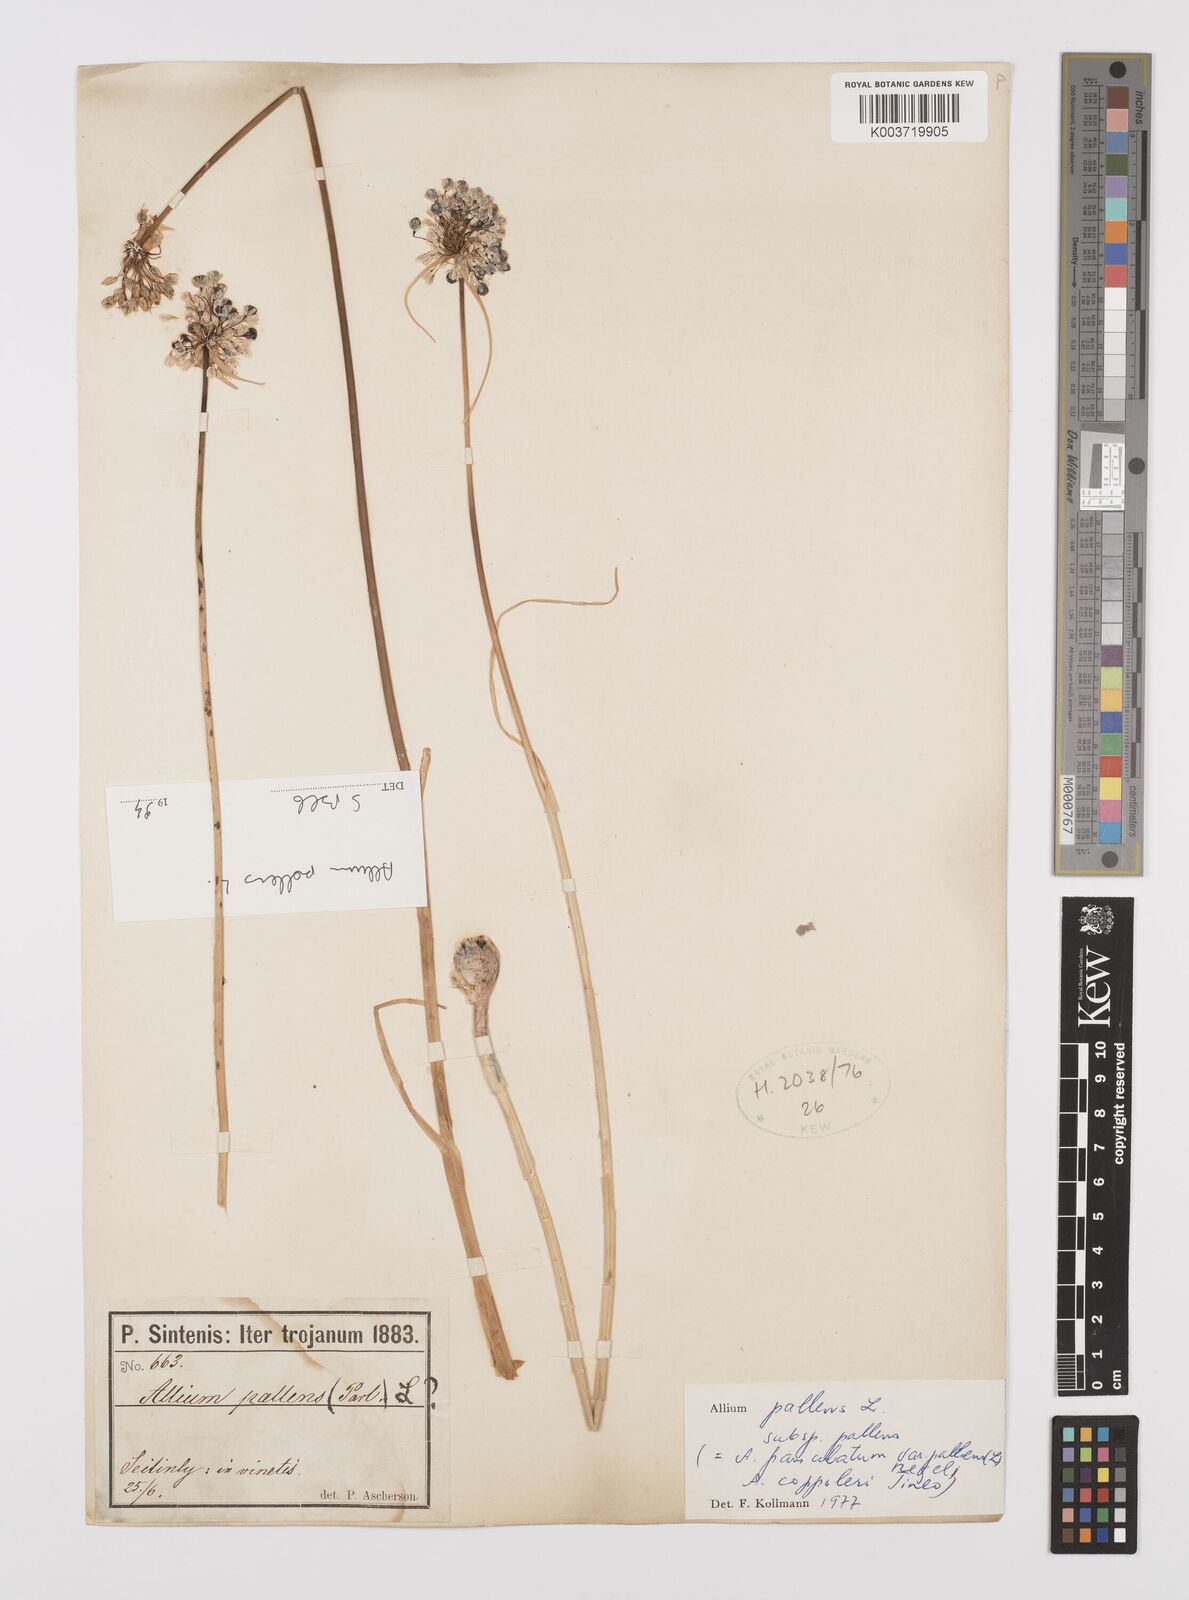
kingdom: Plantae
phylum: Tracheophyta
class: Liliopsida
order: Asparagales
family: Amaryllidaceae
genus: Allium
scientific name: Allium pallens
